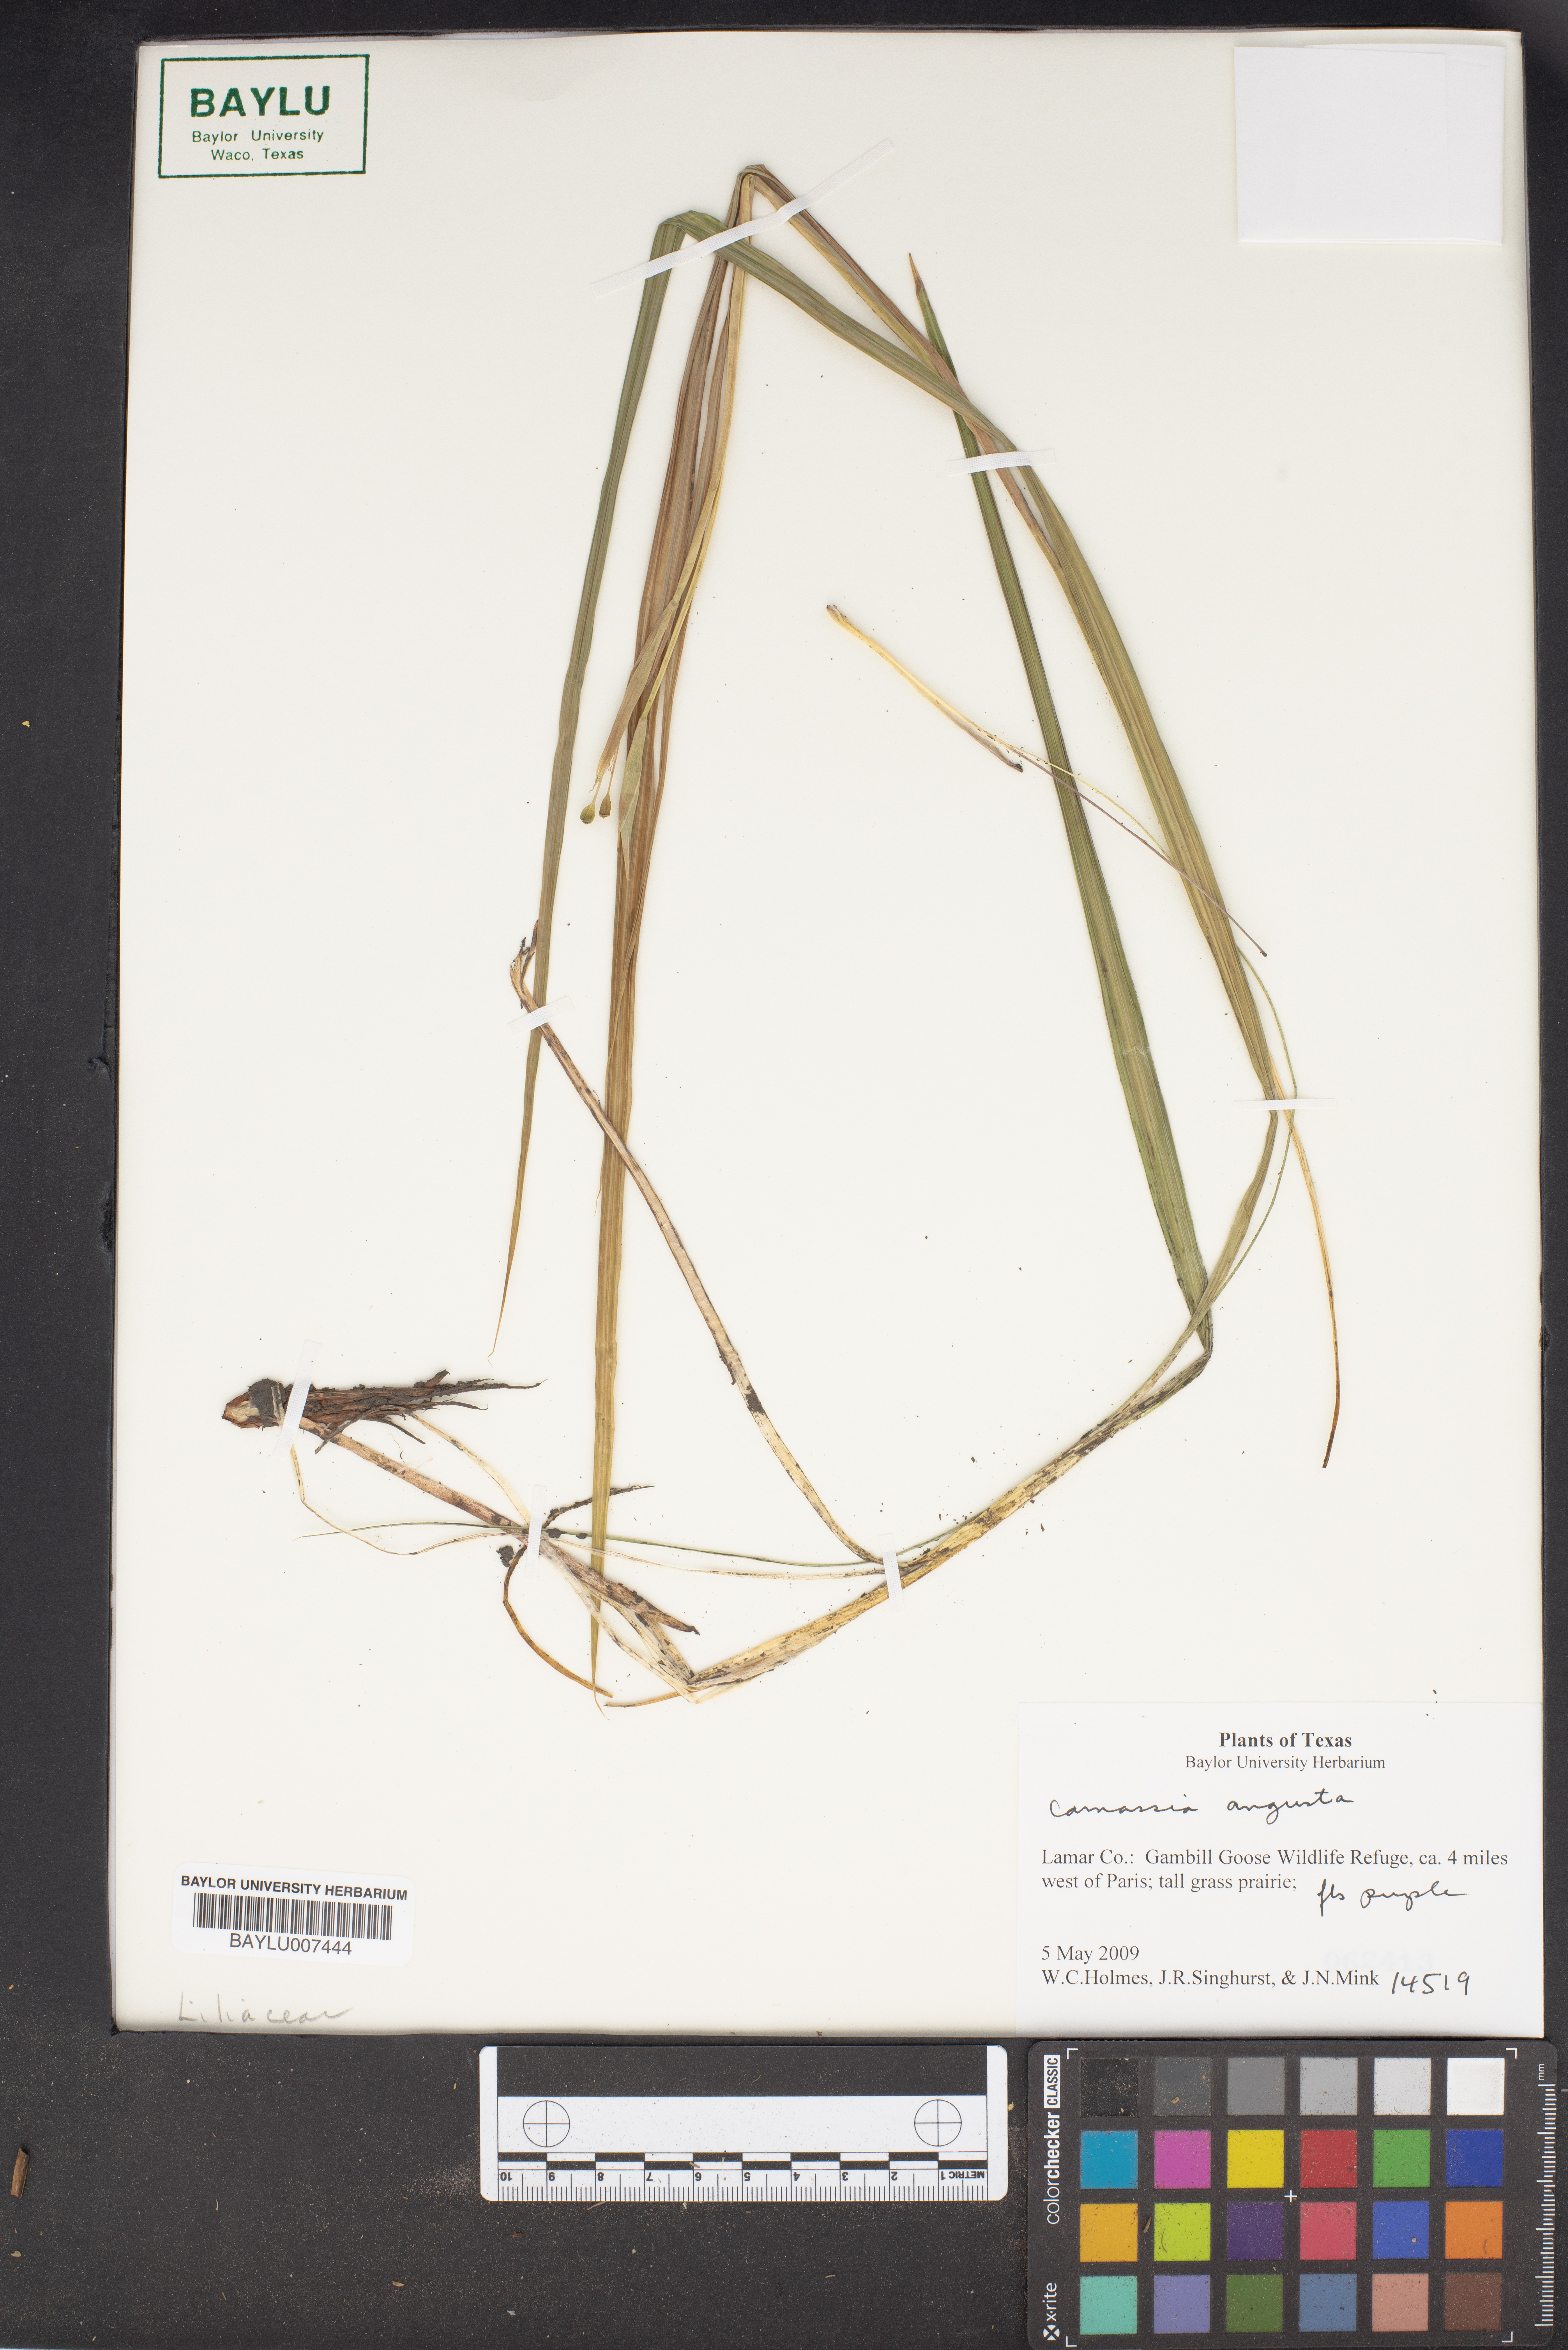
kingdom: Plantae
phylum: Tracheophyta
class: Liliopsida
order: Asparagales
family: Asparagaceae
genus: Camassia
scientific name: Camassia angusta
